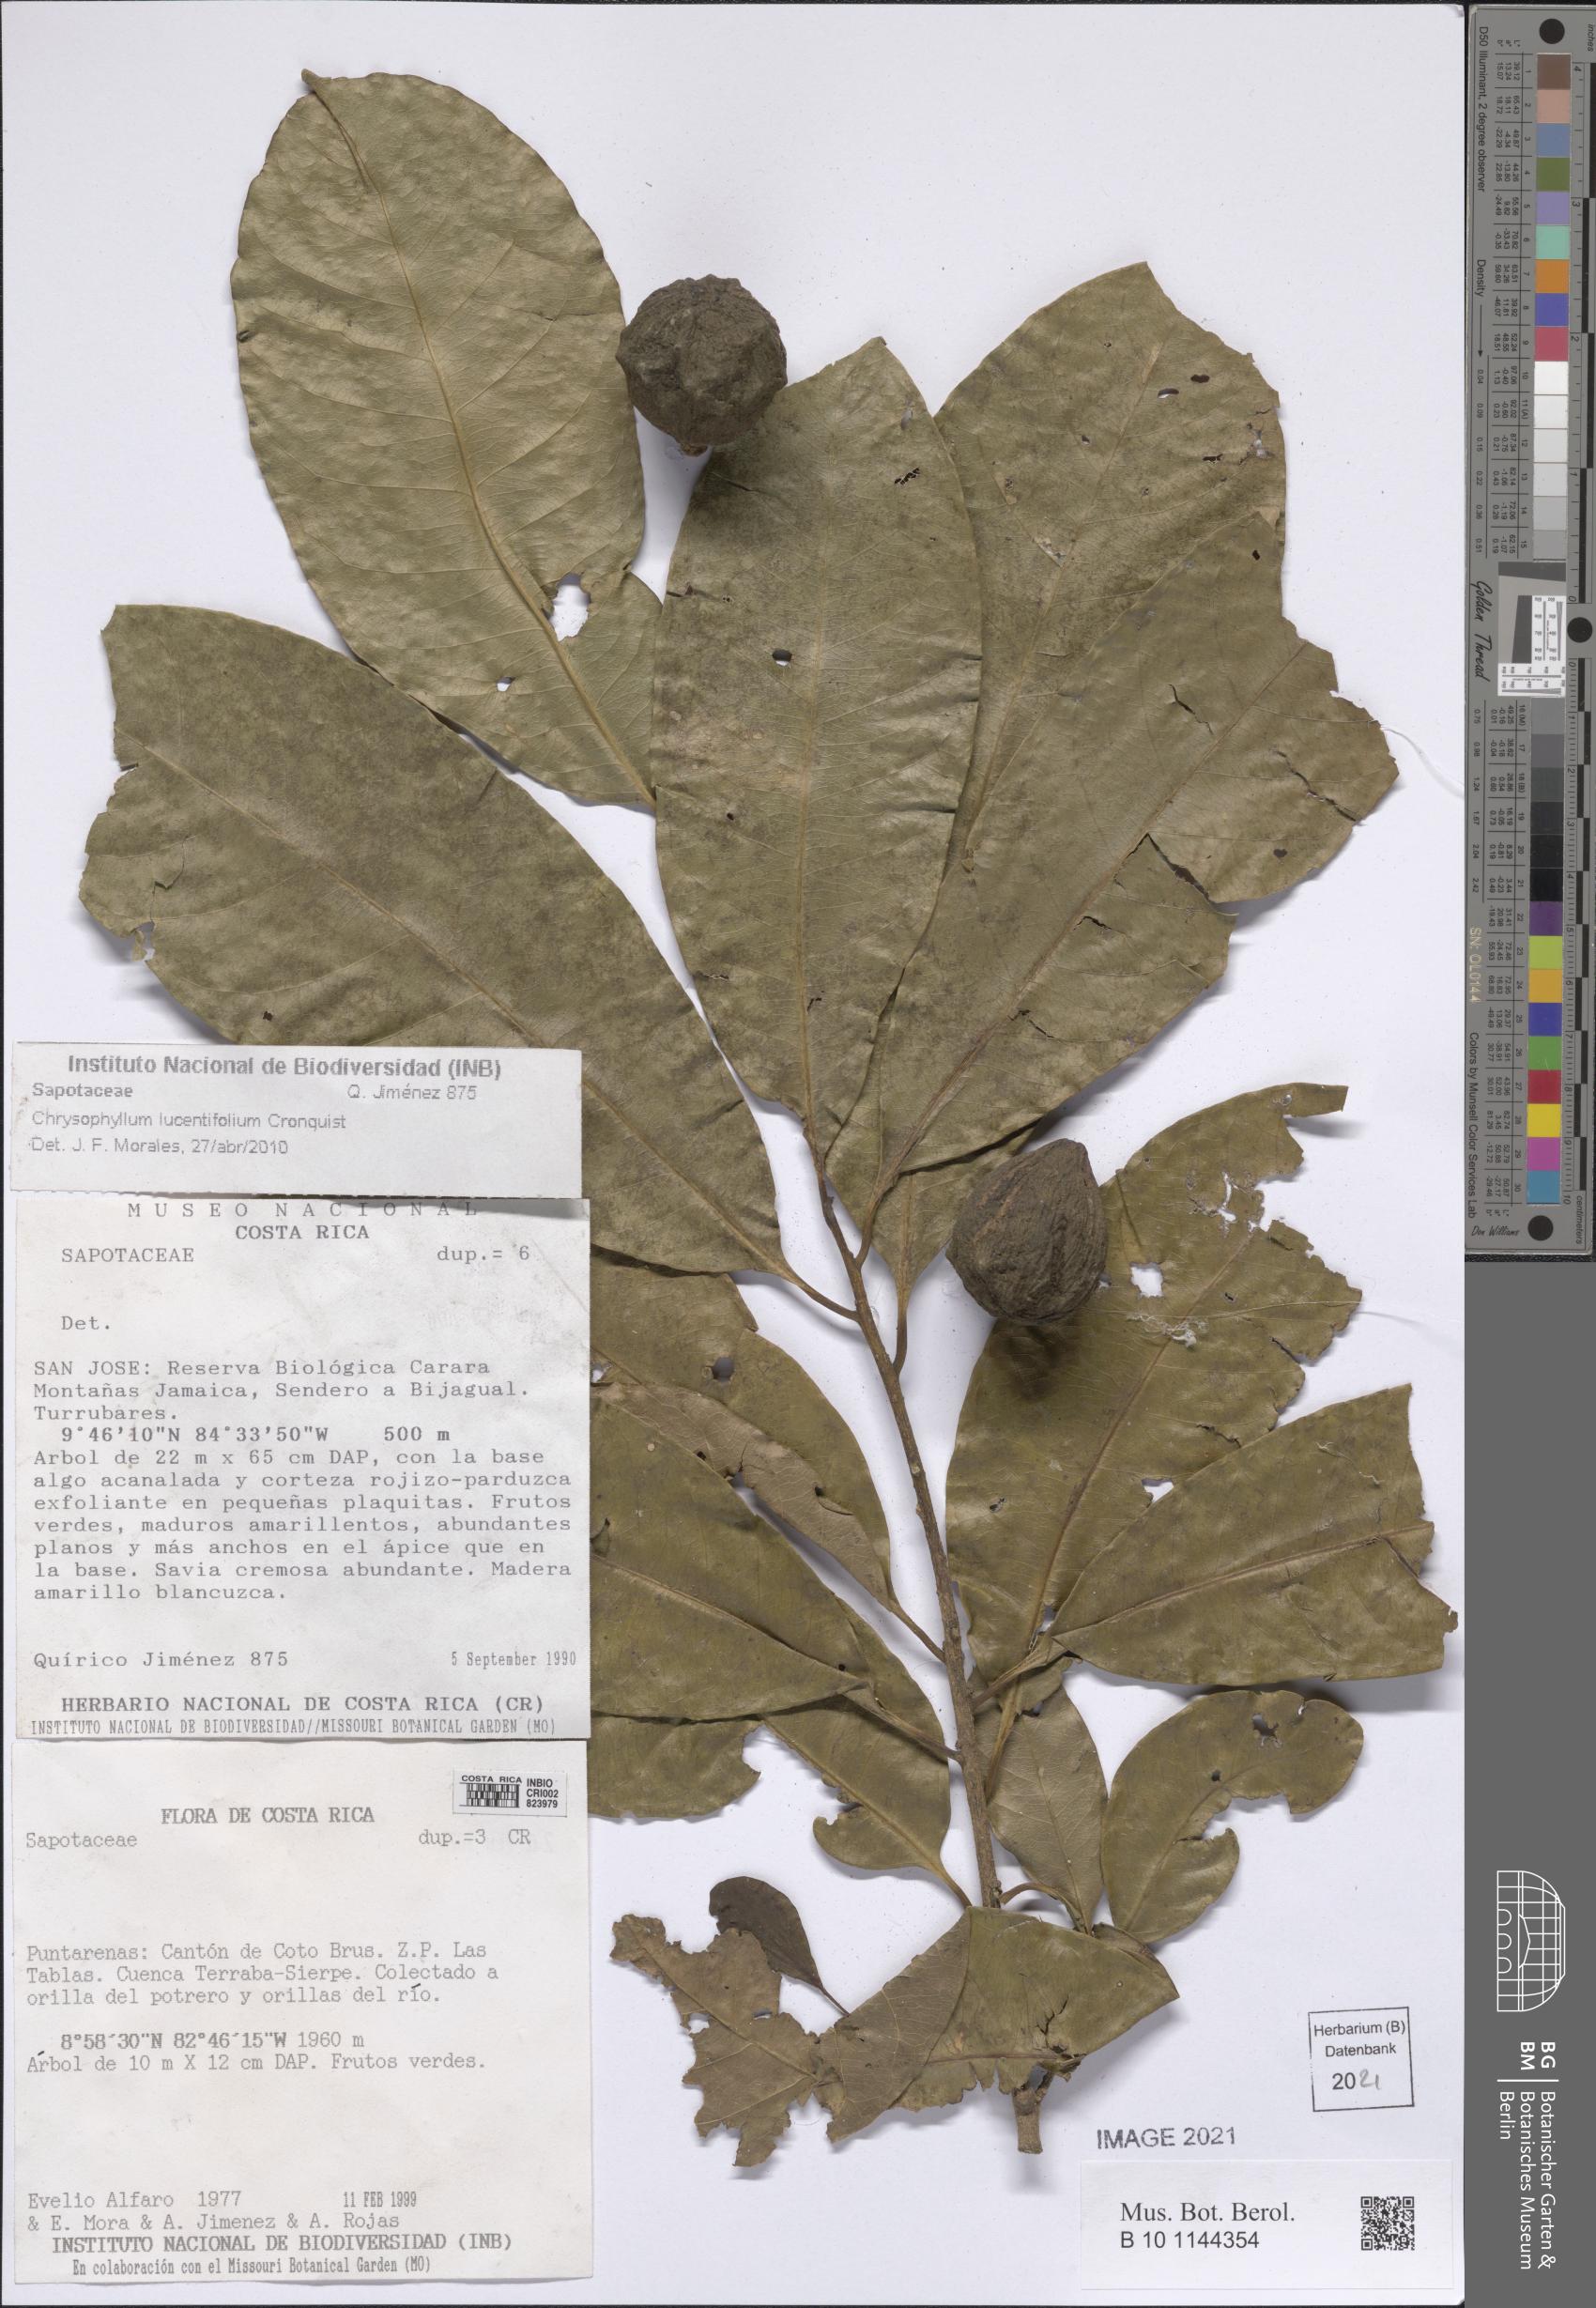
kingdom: Plantae
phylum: Tracheophyta
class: Magnoliopsida
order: Ericales
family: Sapotaceae
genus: Sideroxylon
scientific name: Sideroxylon portoricense
